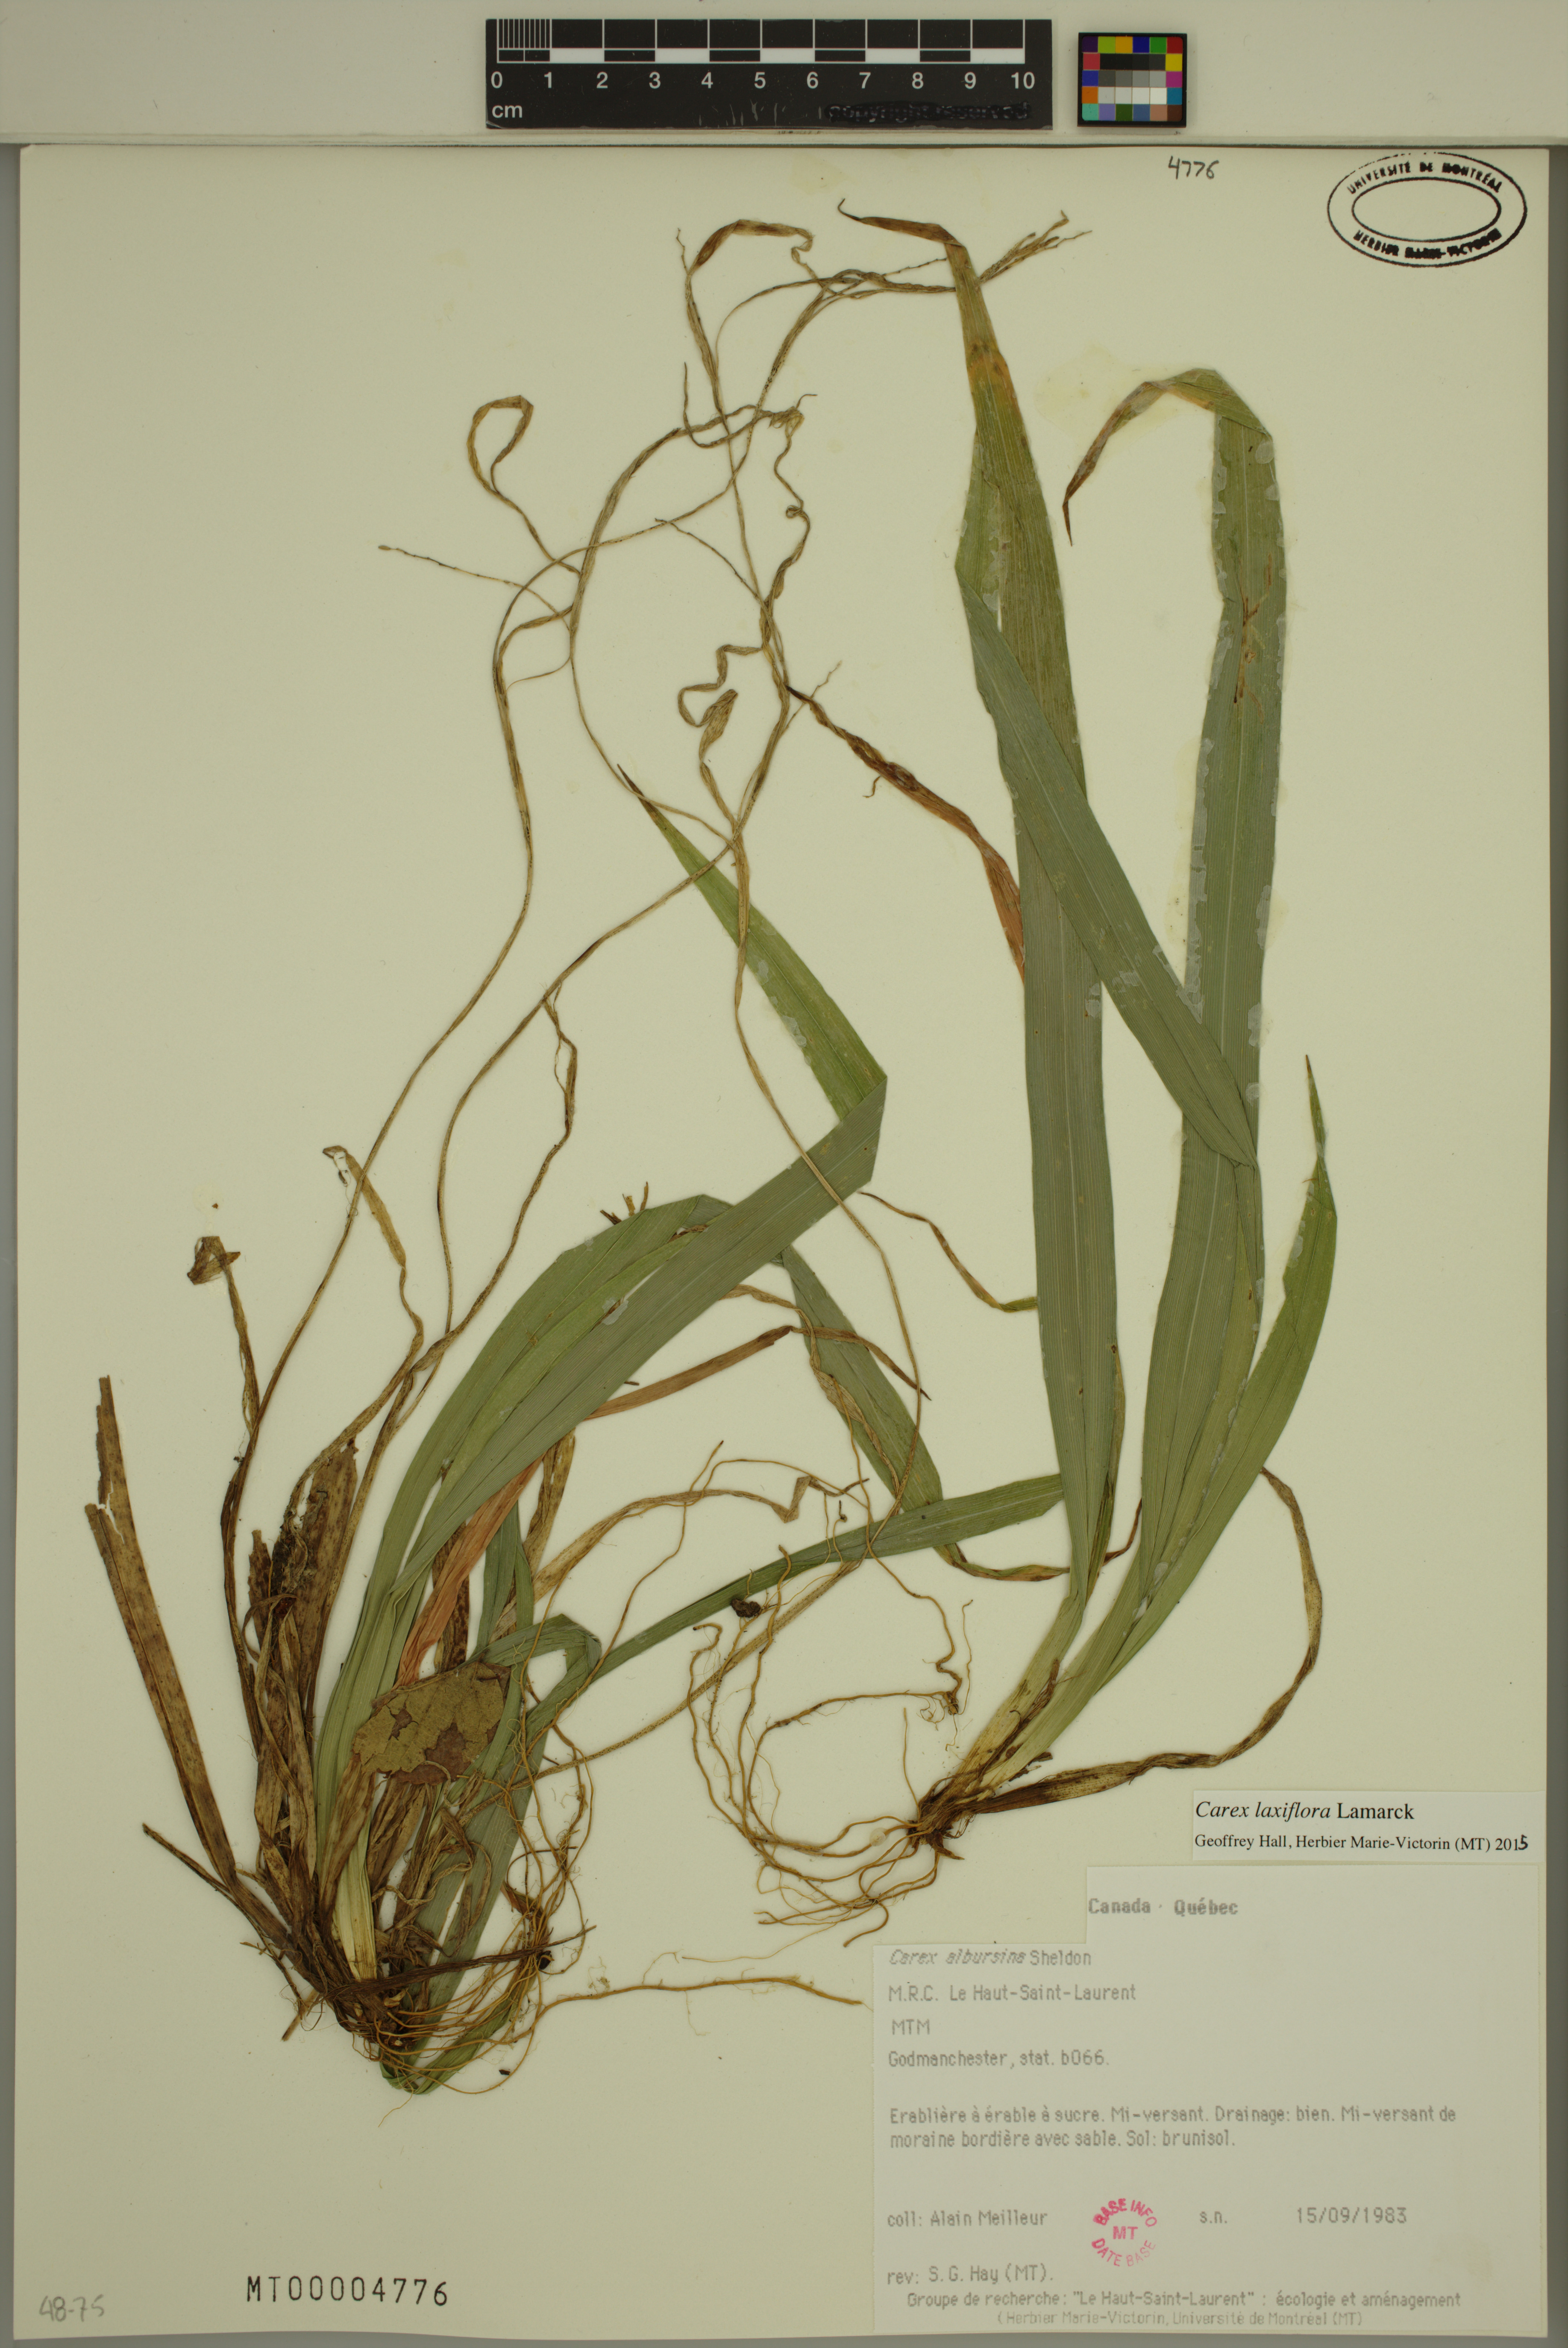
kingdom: Plantae
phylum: Tracheophyta
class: Liliopsida
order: Poales
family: Cyperaceae
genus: Carex
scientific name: Carex laxiflora
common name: Beech wood sedge
